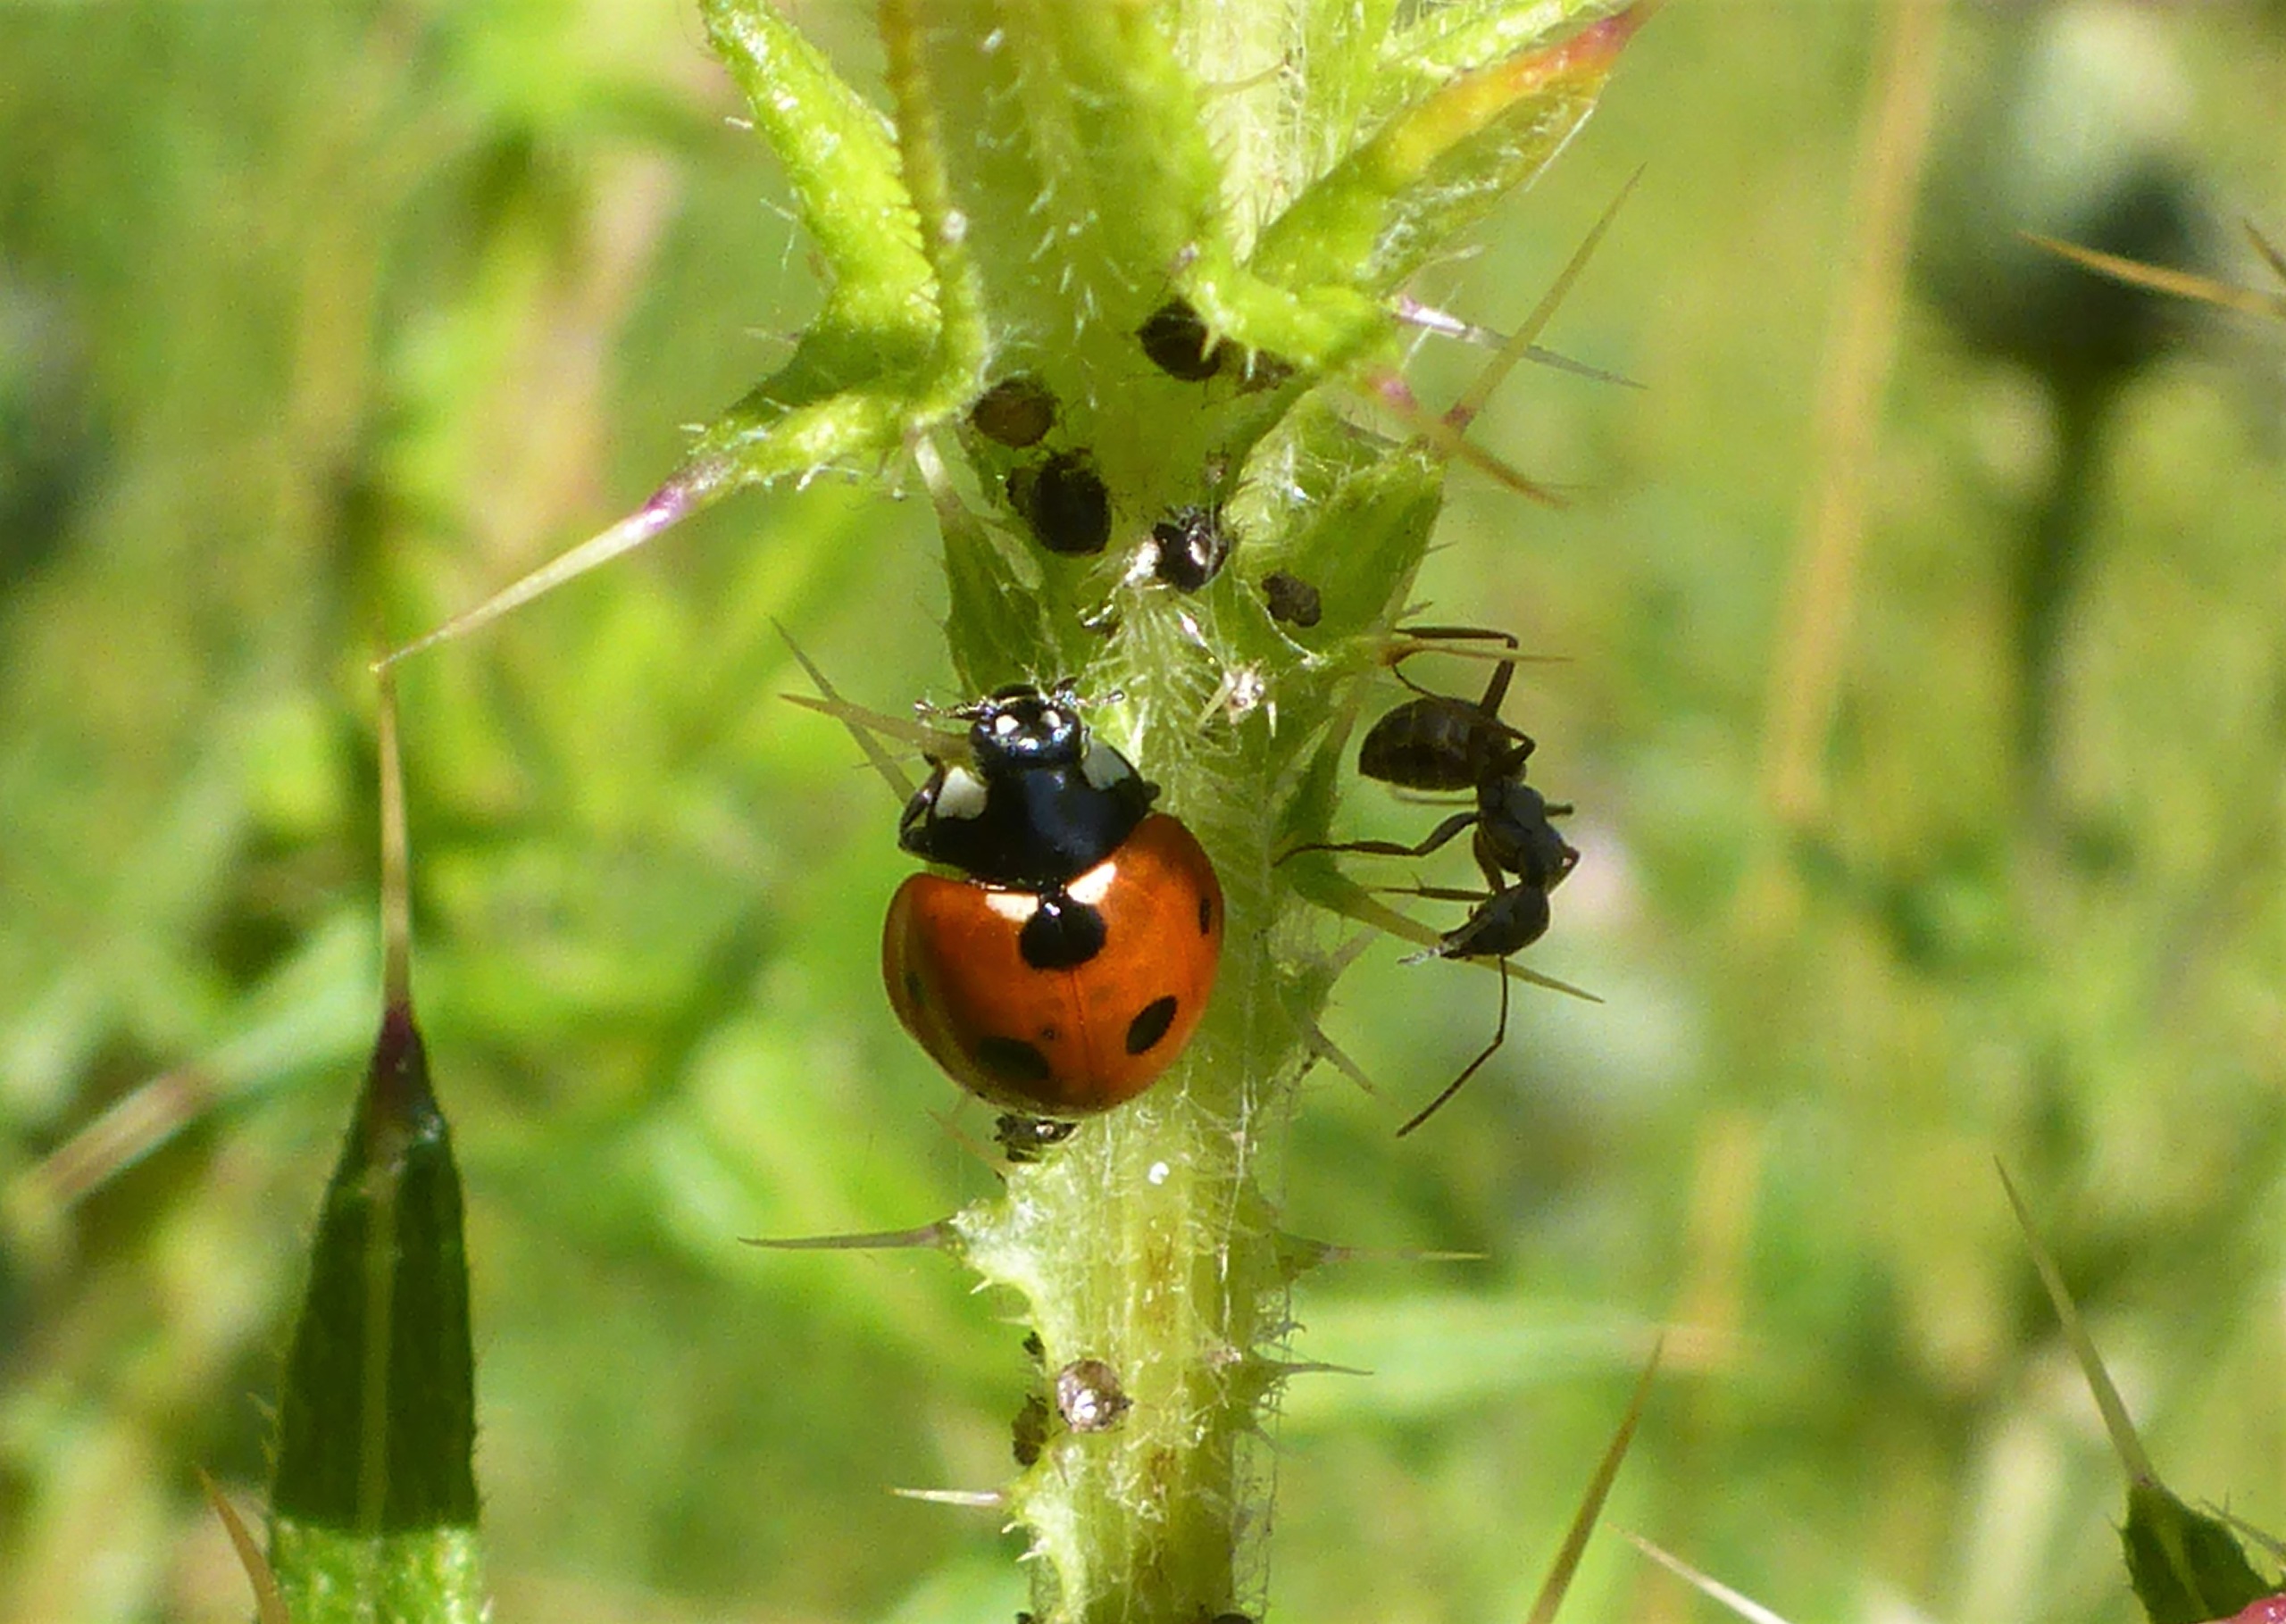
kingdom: Animalia
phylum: Arthropoda
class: Insecta
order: Coleoptera
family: Coccinellidae
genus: Coccinella
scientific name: Coccinella septempunctata
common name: Syvplettet mariehøne
